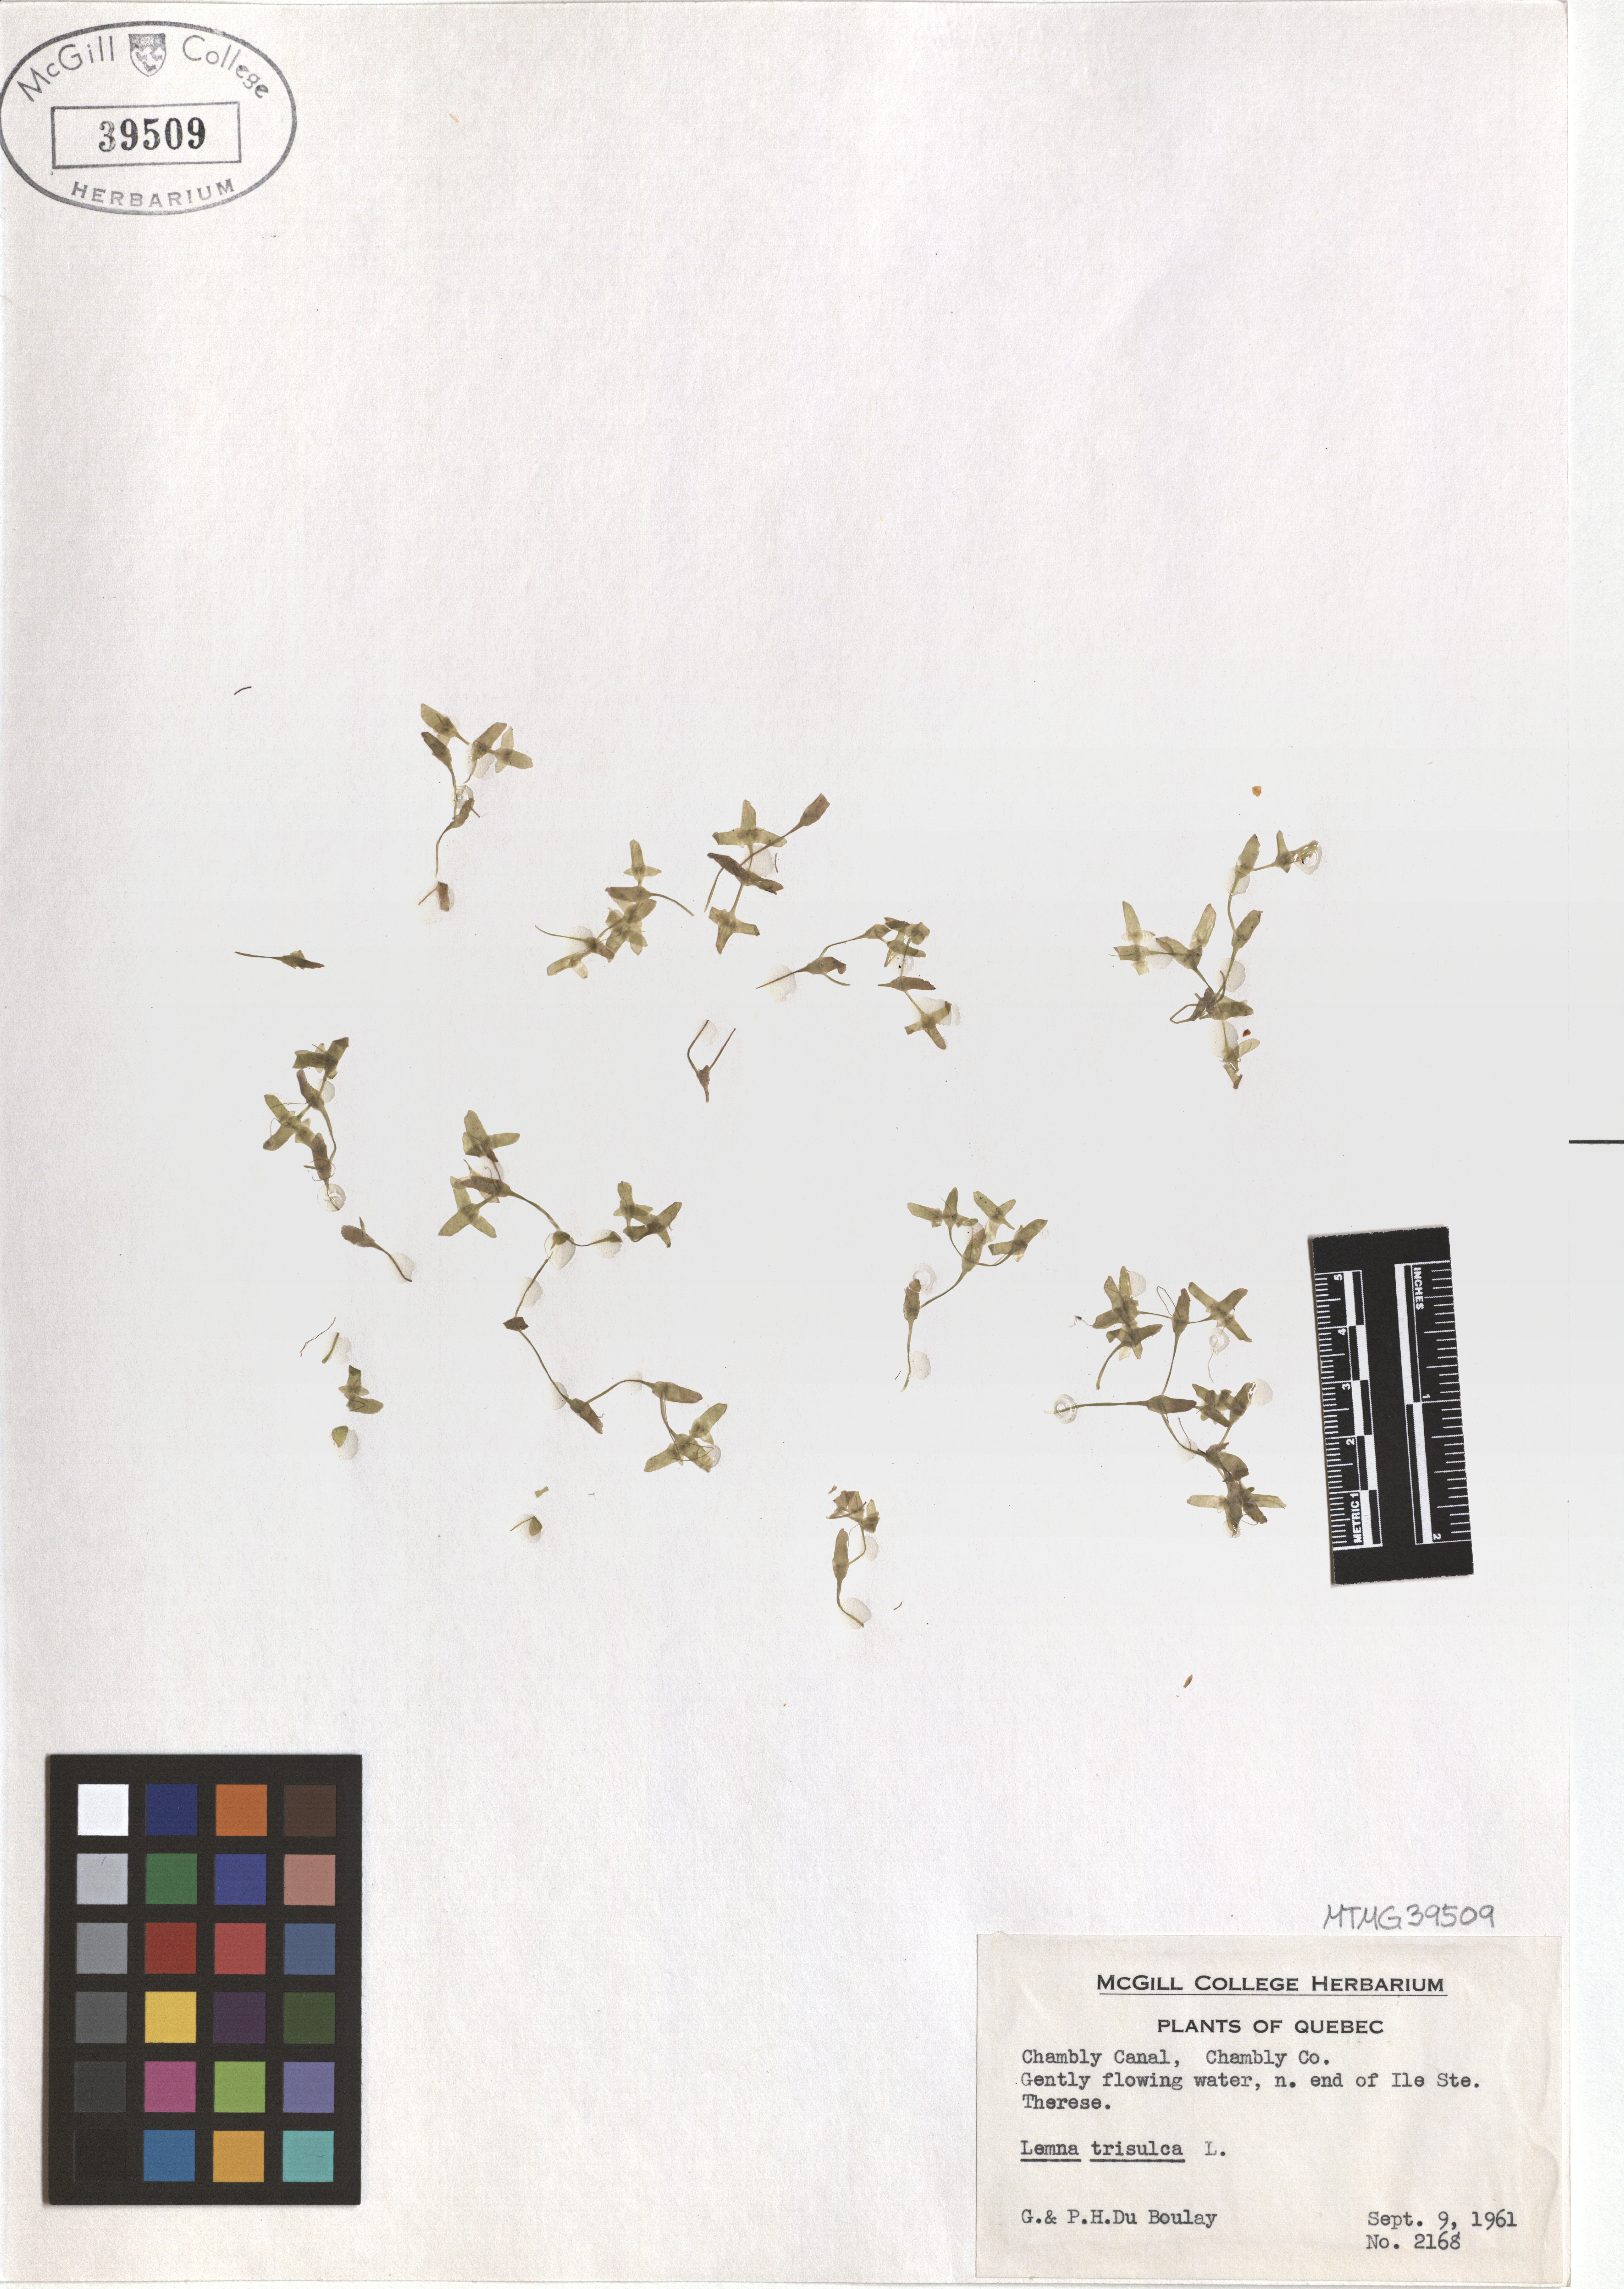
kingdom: Plantae
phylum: Tracheophyta
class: Liliopsida
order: Alismatales
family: Araceae
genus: Lemna
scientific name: Lemna trisulca
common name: Ivy-leaved duckweed
